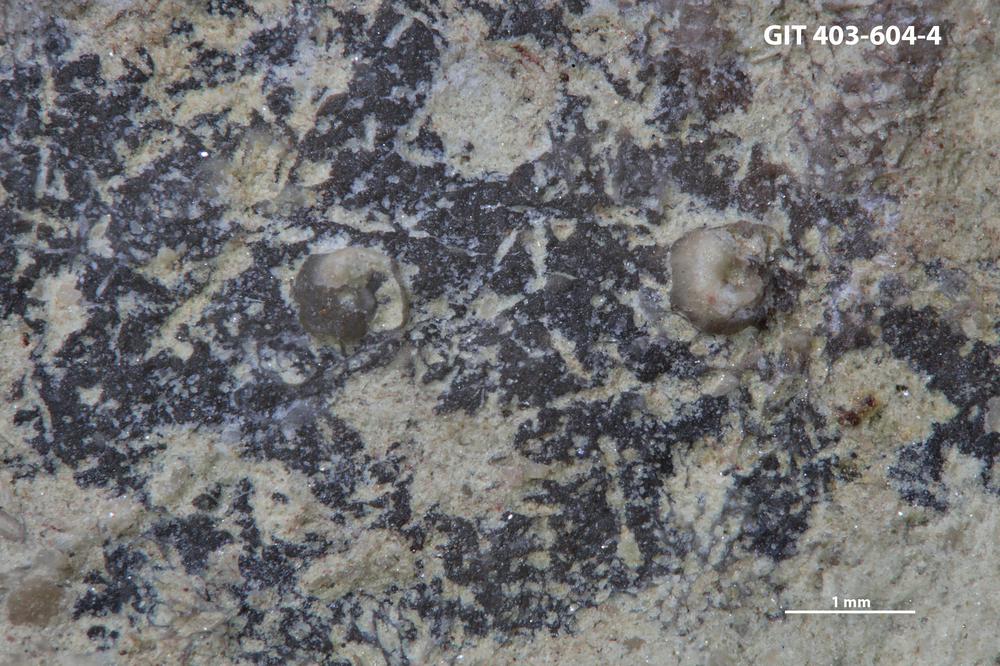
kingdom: Animalia
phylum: Mollusca
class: Cricoconarida
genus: Palaeoconchus
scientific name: Palaeoconchus
